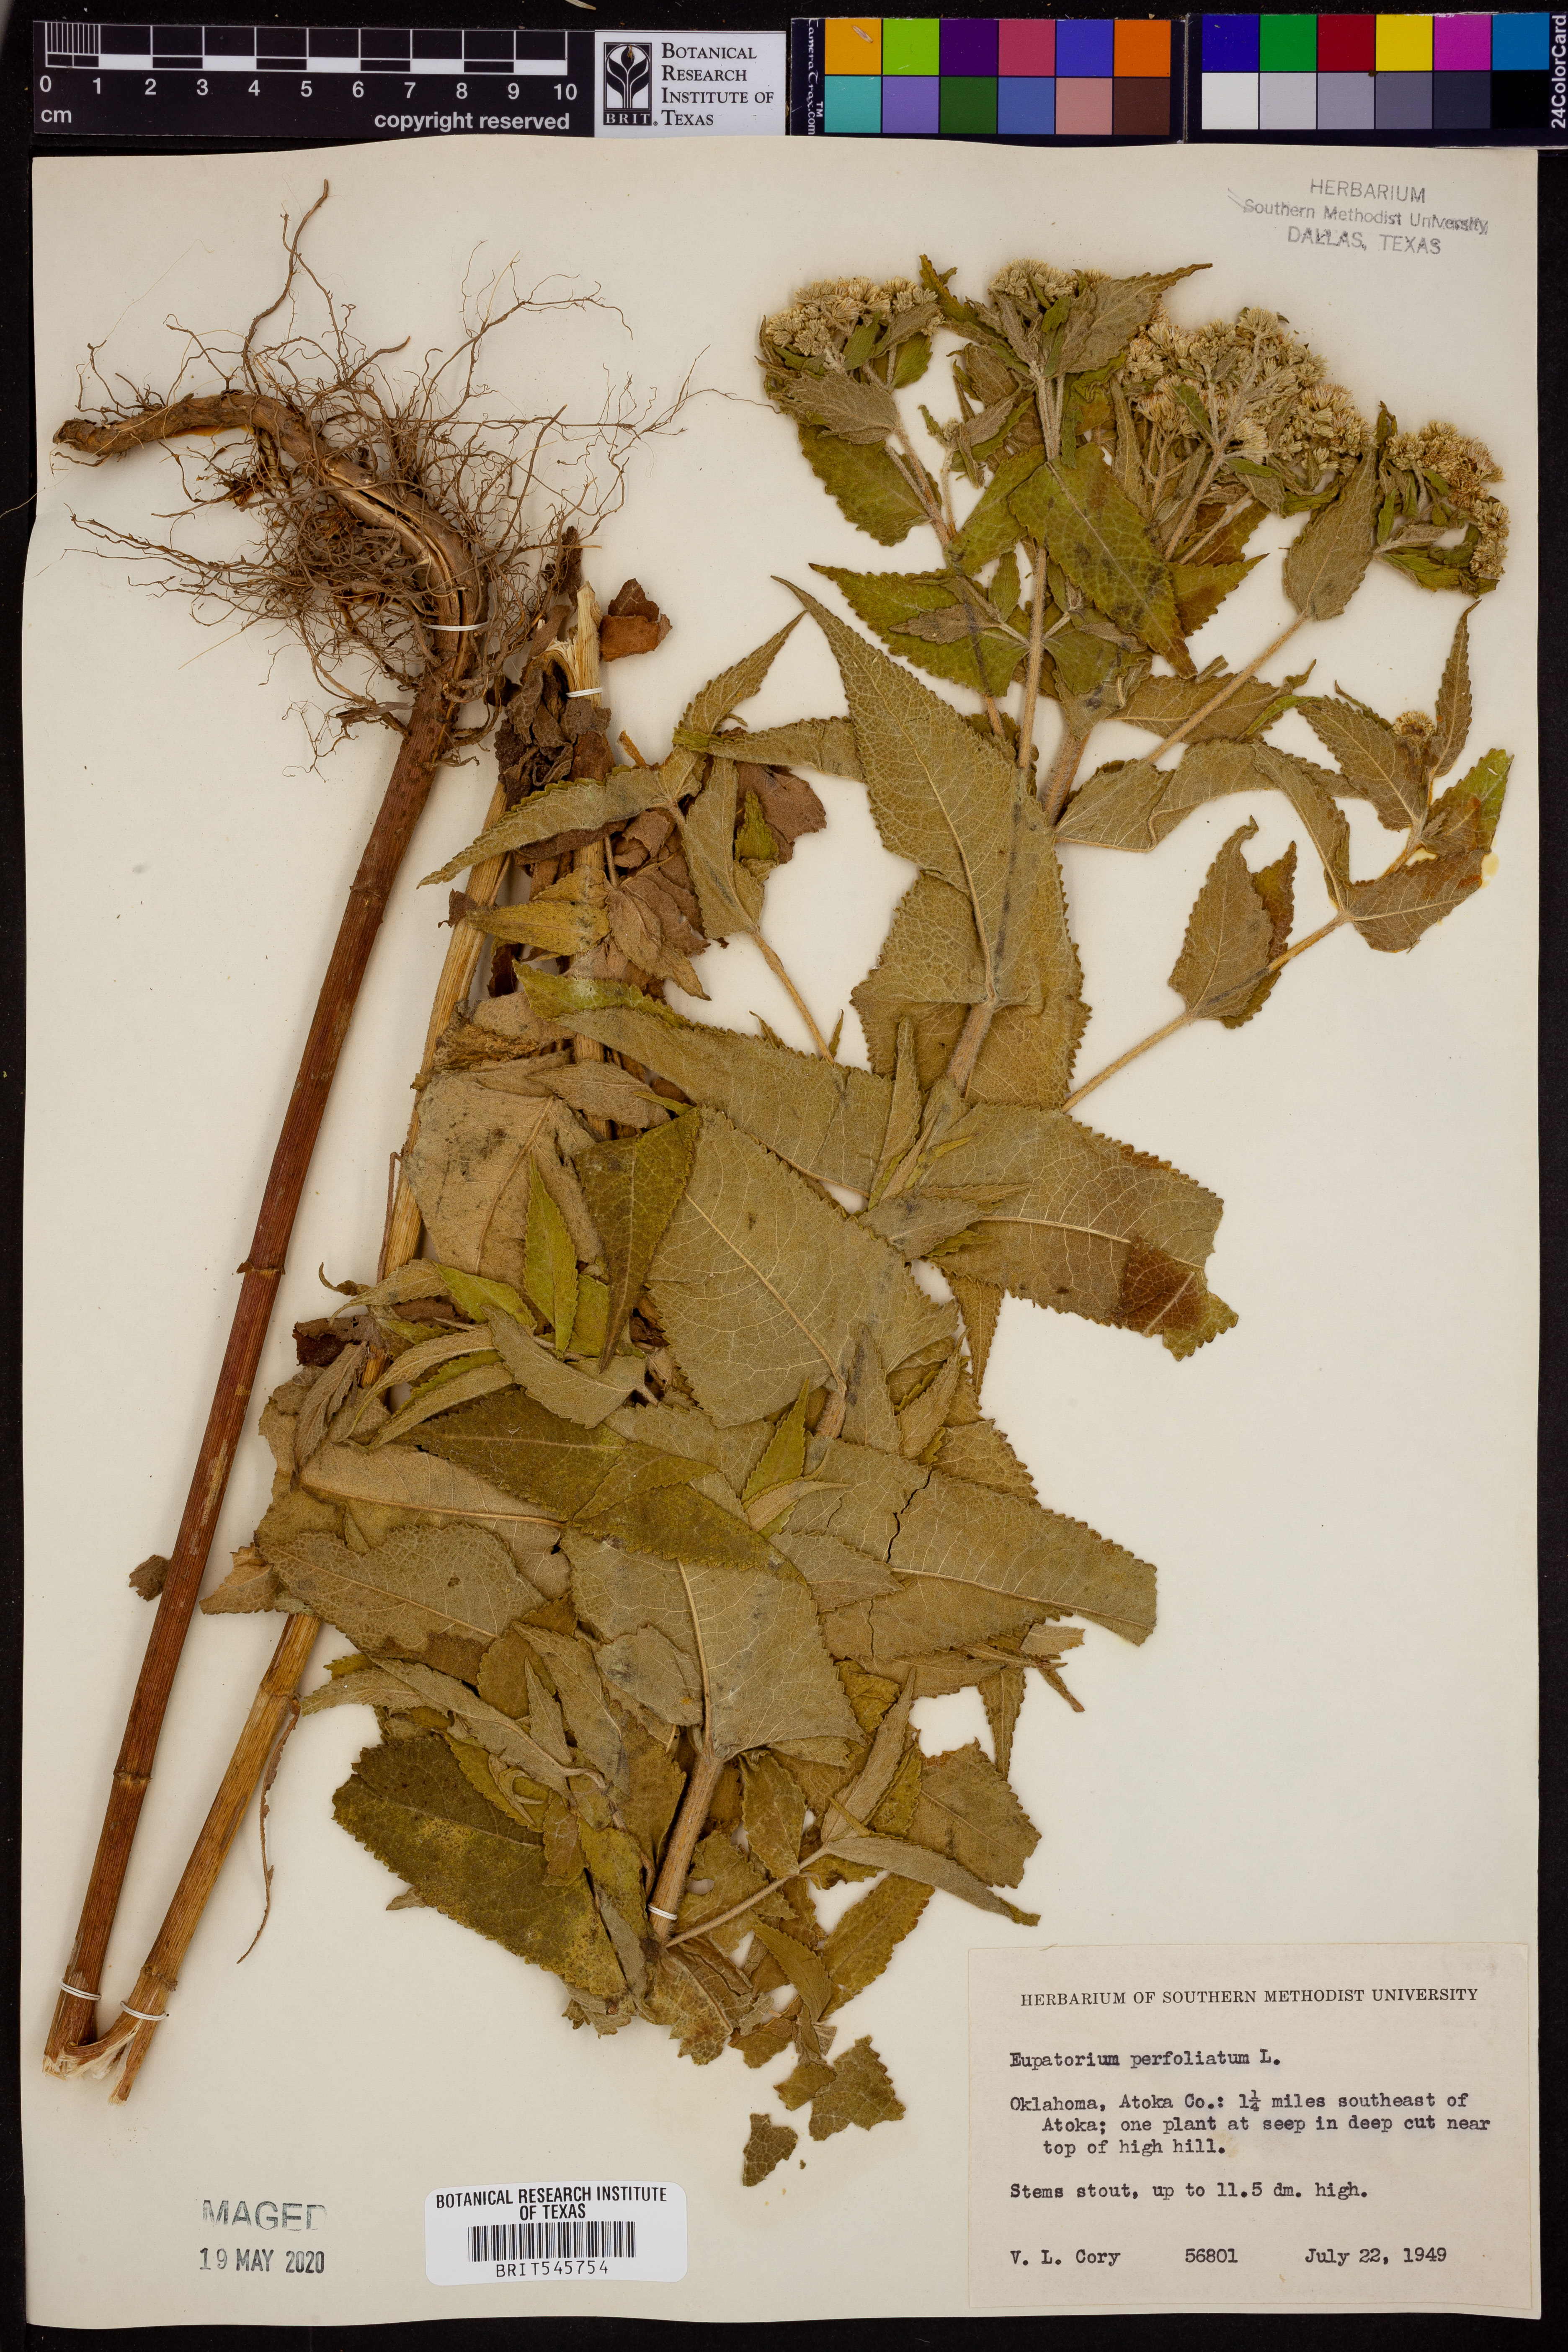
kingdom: Plantae
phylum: Tracheophyta
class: Magnoliopsida
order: Asterales
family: Asteraceae
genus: Eupatorium
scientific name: Eupatorium perfoliatum
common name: Boneset
